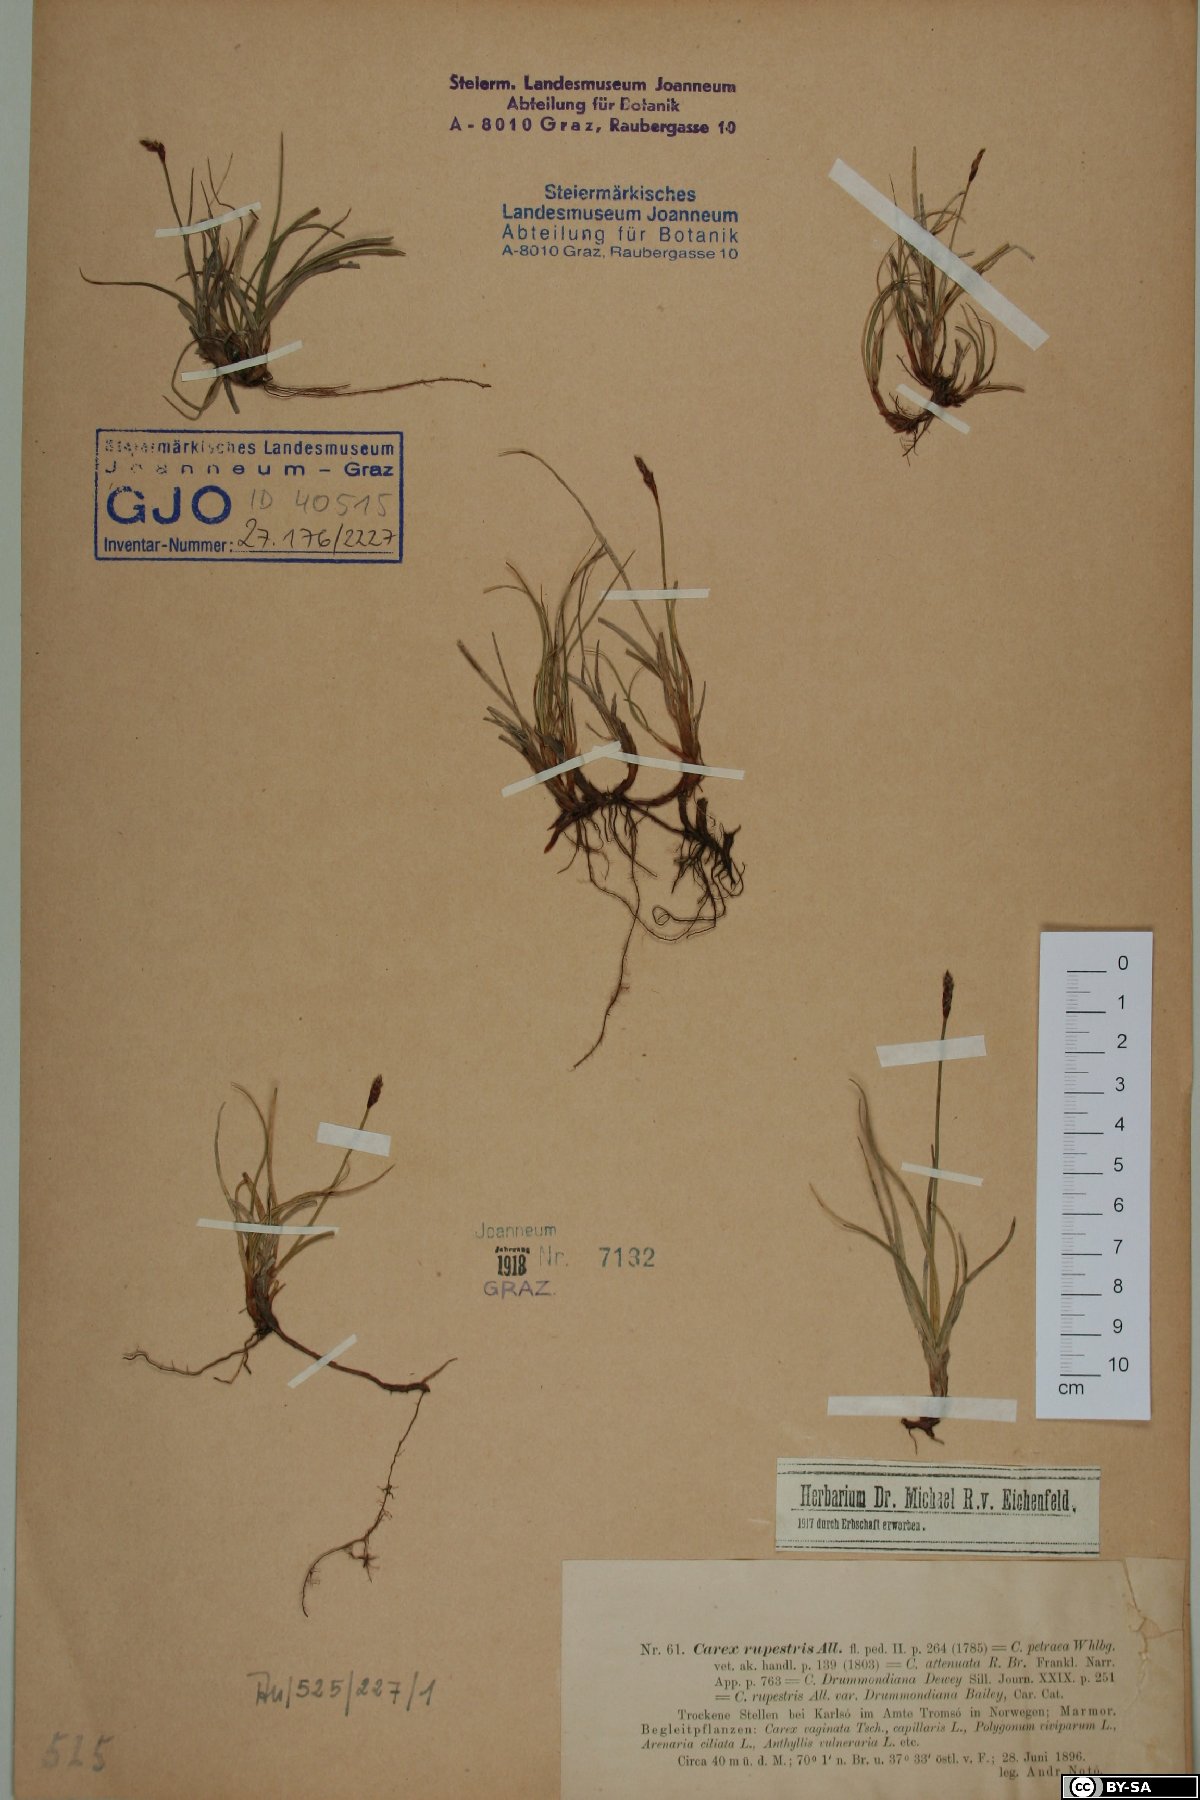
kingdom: Plantae
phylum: Tracheophyta
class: Liliopsida
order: Poales
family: Cyperaceae
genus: Carex
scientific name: Carex rupestris
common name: Rock sedge
